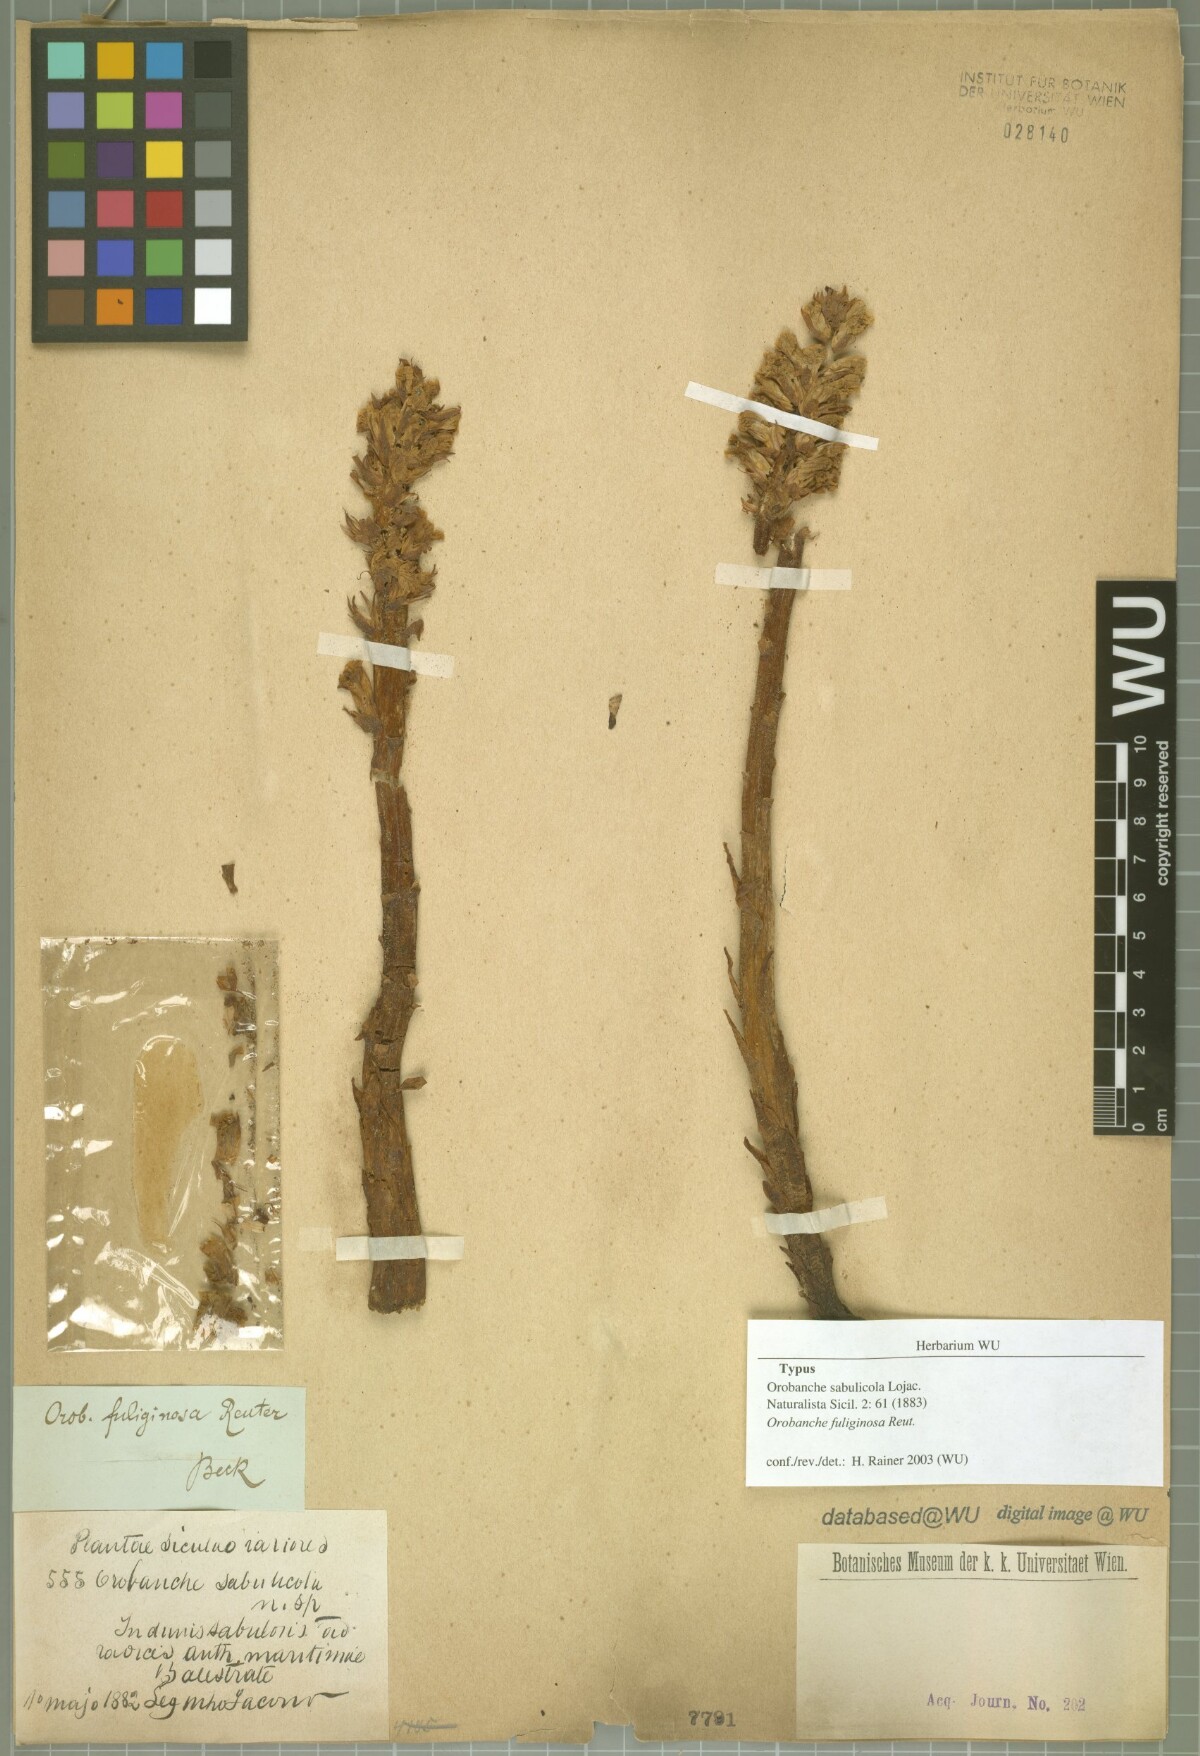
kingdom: Plantae
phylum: Tracheophyta
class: Magnoliopsida
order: Lamiales
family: Orobanchaceae
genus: Orobanche
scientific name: Orobanche litorea
